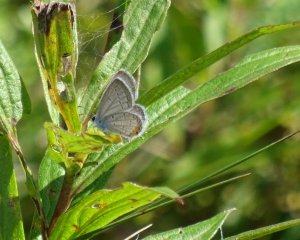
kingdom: Animalia
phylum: Arthropoda
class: Insecta
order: Lepidoptera
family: Lycaenidae
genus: Elkalyce
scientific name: Elkalyce comyntas
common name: Eastern Tailed-Blue
